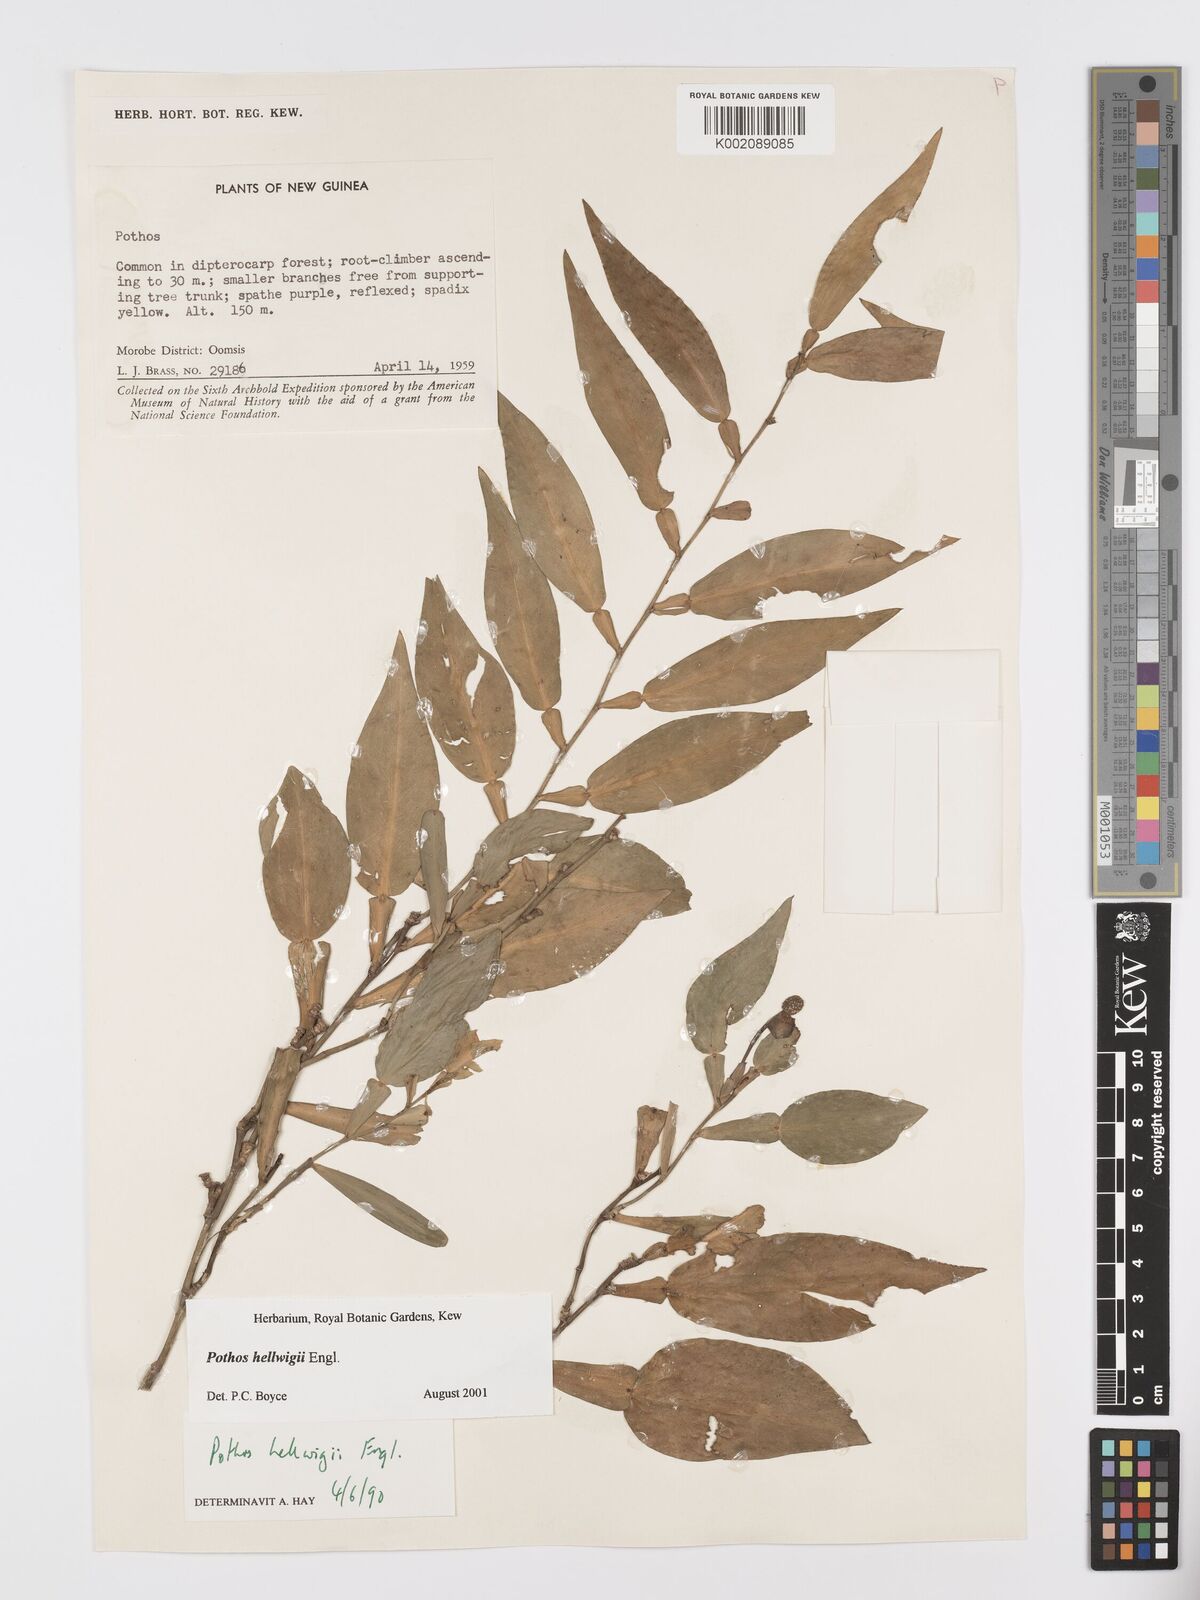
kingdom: Plantae
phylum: Tracheophyta
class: Liliopsida
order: Alismatales
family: Araceae
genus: Pothos
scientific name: Pothos hellwigii
